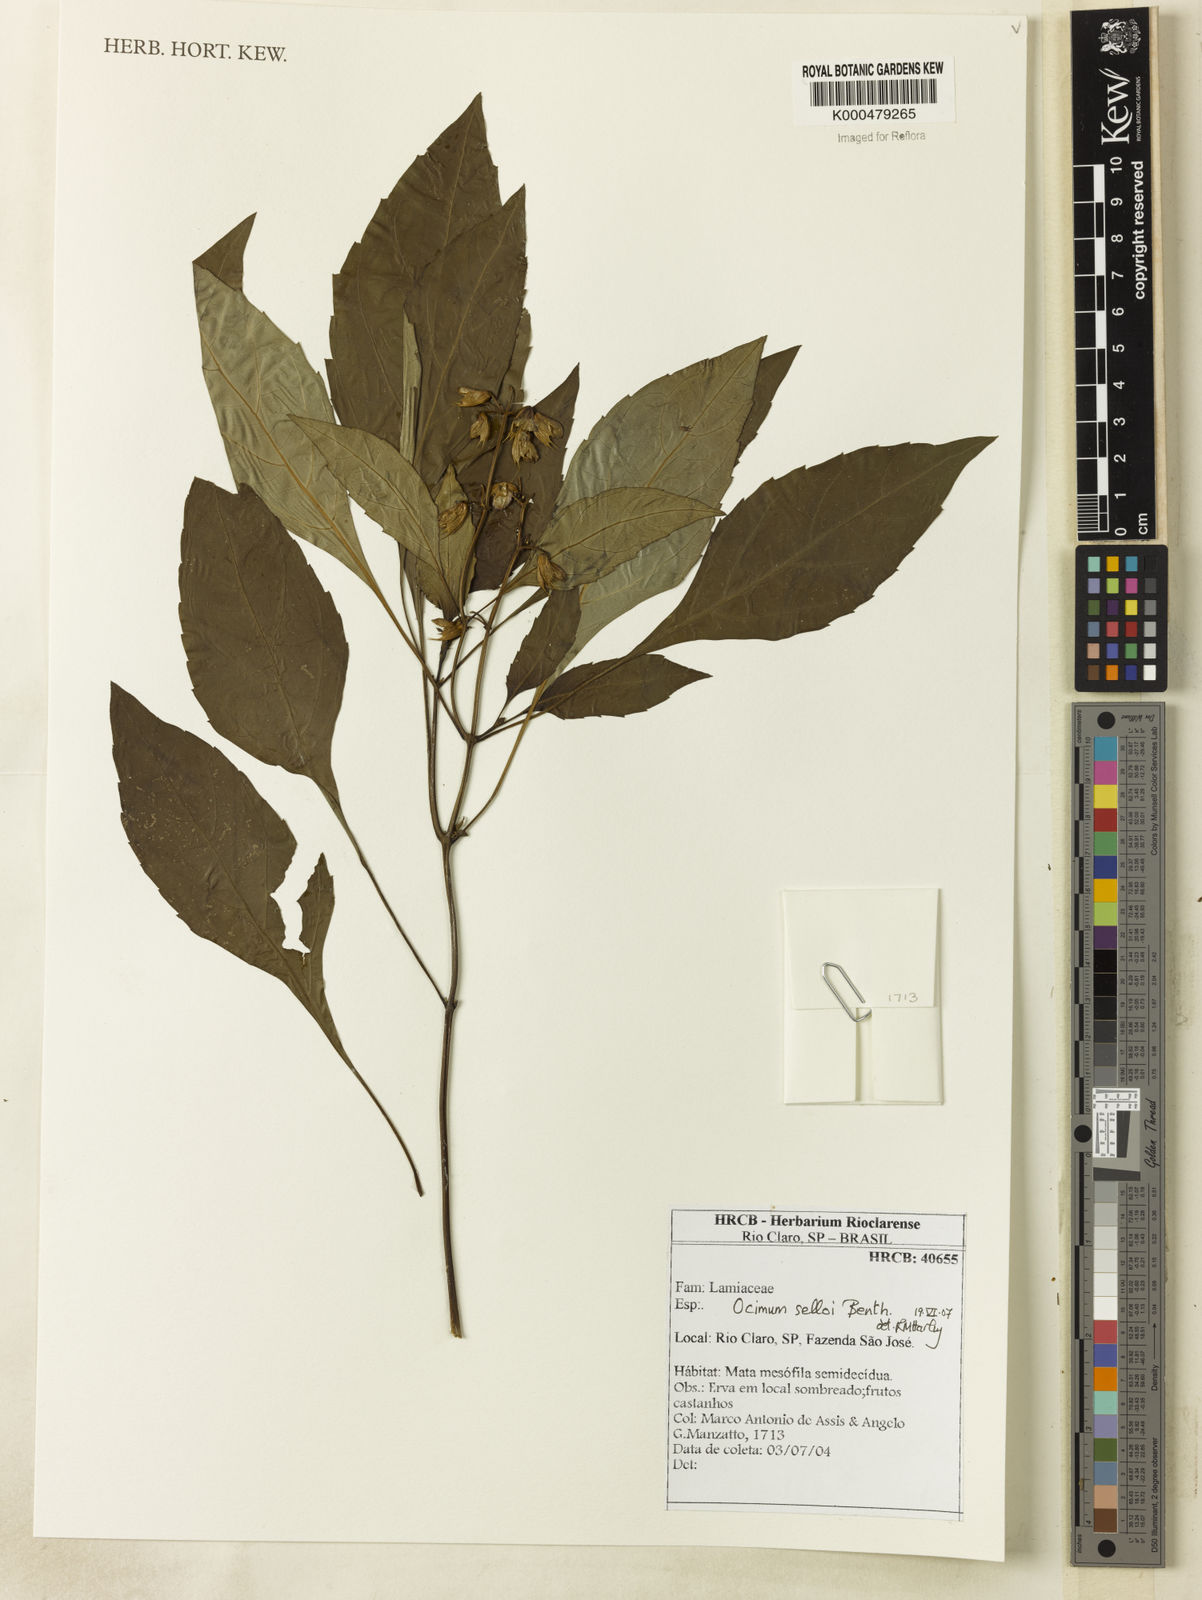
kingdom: Plantae
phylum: Tracheophyta
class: Magnoliopsida
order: Lamiales
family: Lamiaceae
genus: Ocimum
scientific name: Ocimum carnosum
